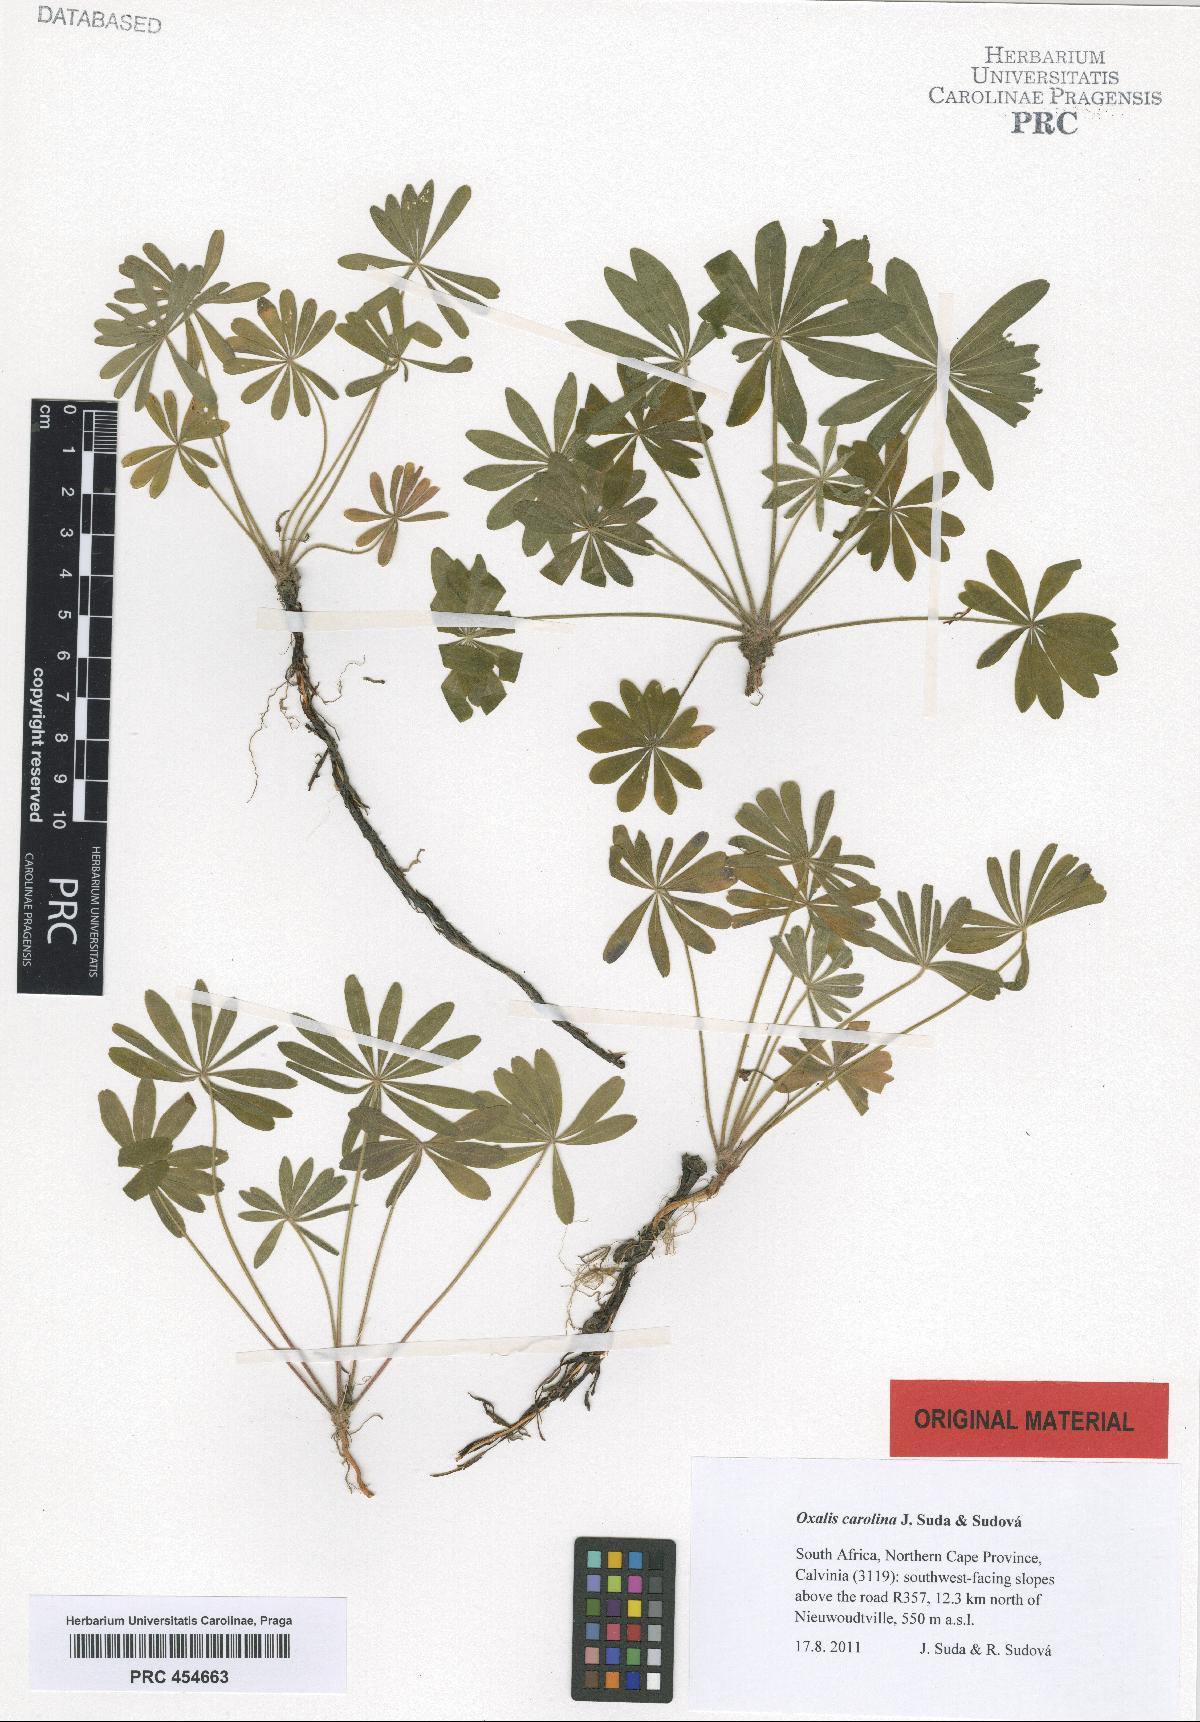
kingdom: Plantae
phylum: Tracheophyta
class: Magnoliopsida
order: Oxalidales
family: Oxalidaceae
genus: Oxalis
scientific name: Oxalis carolina
